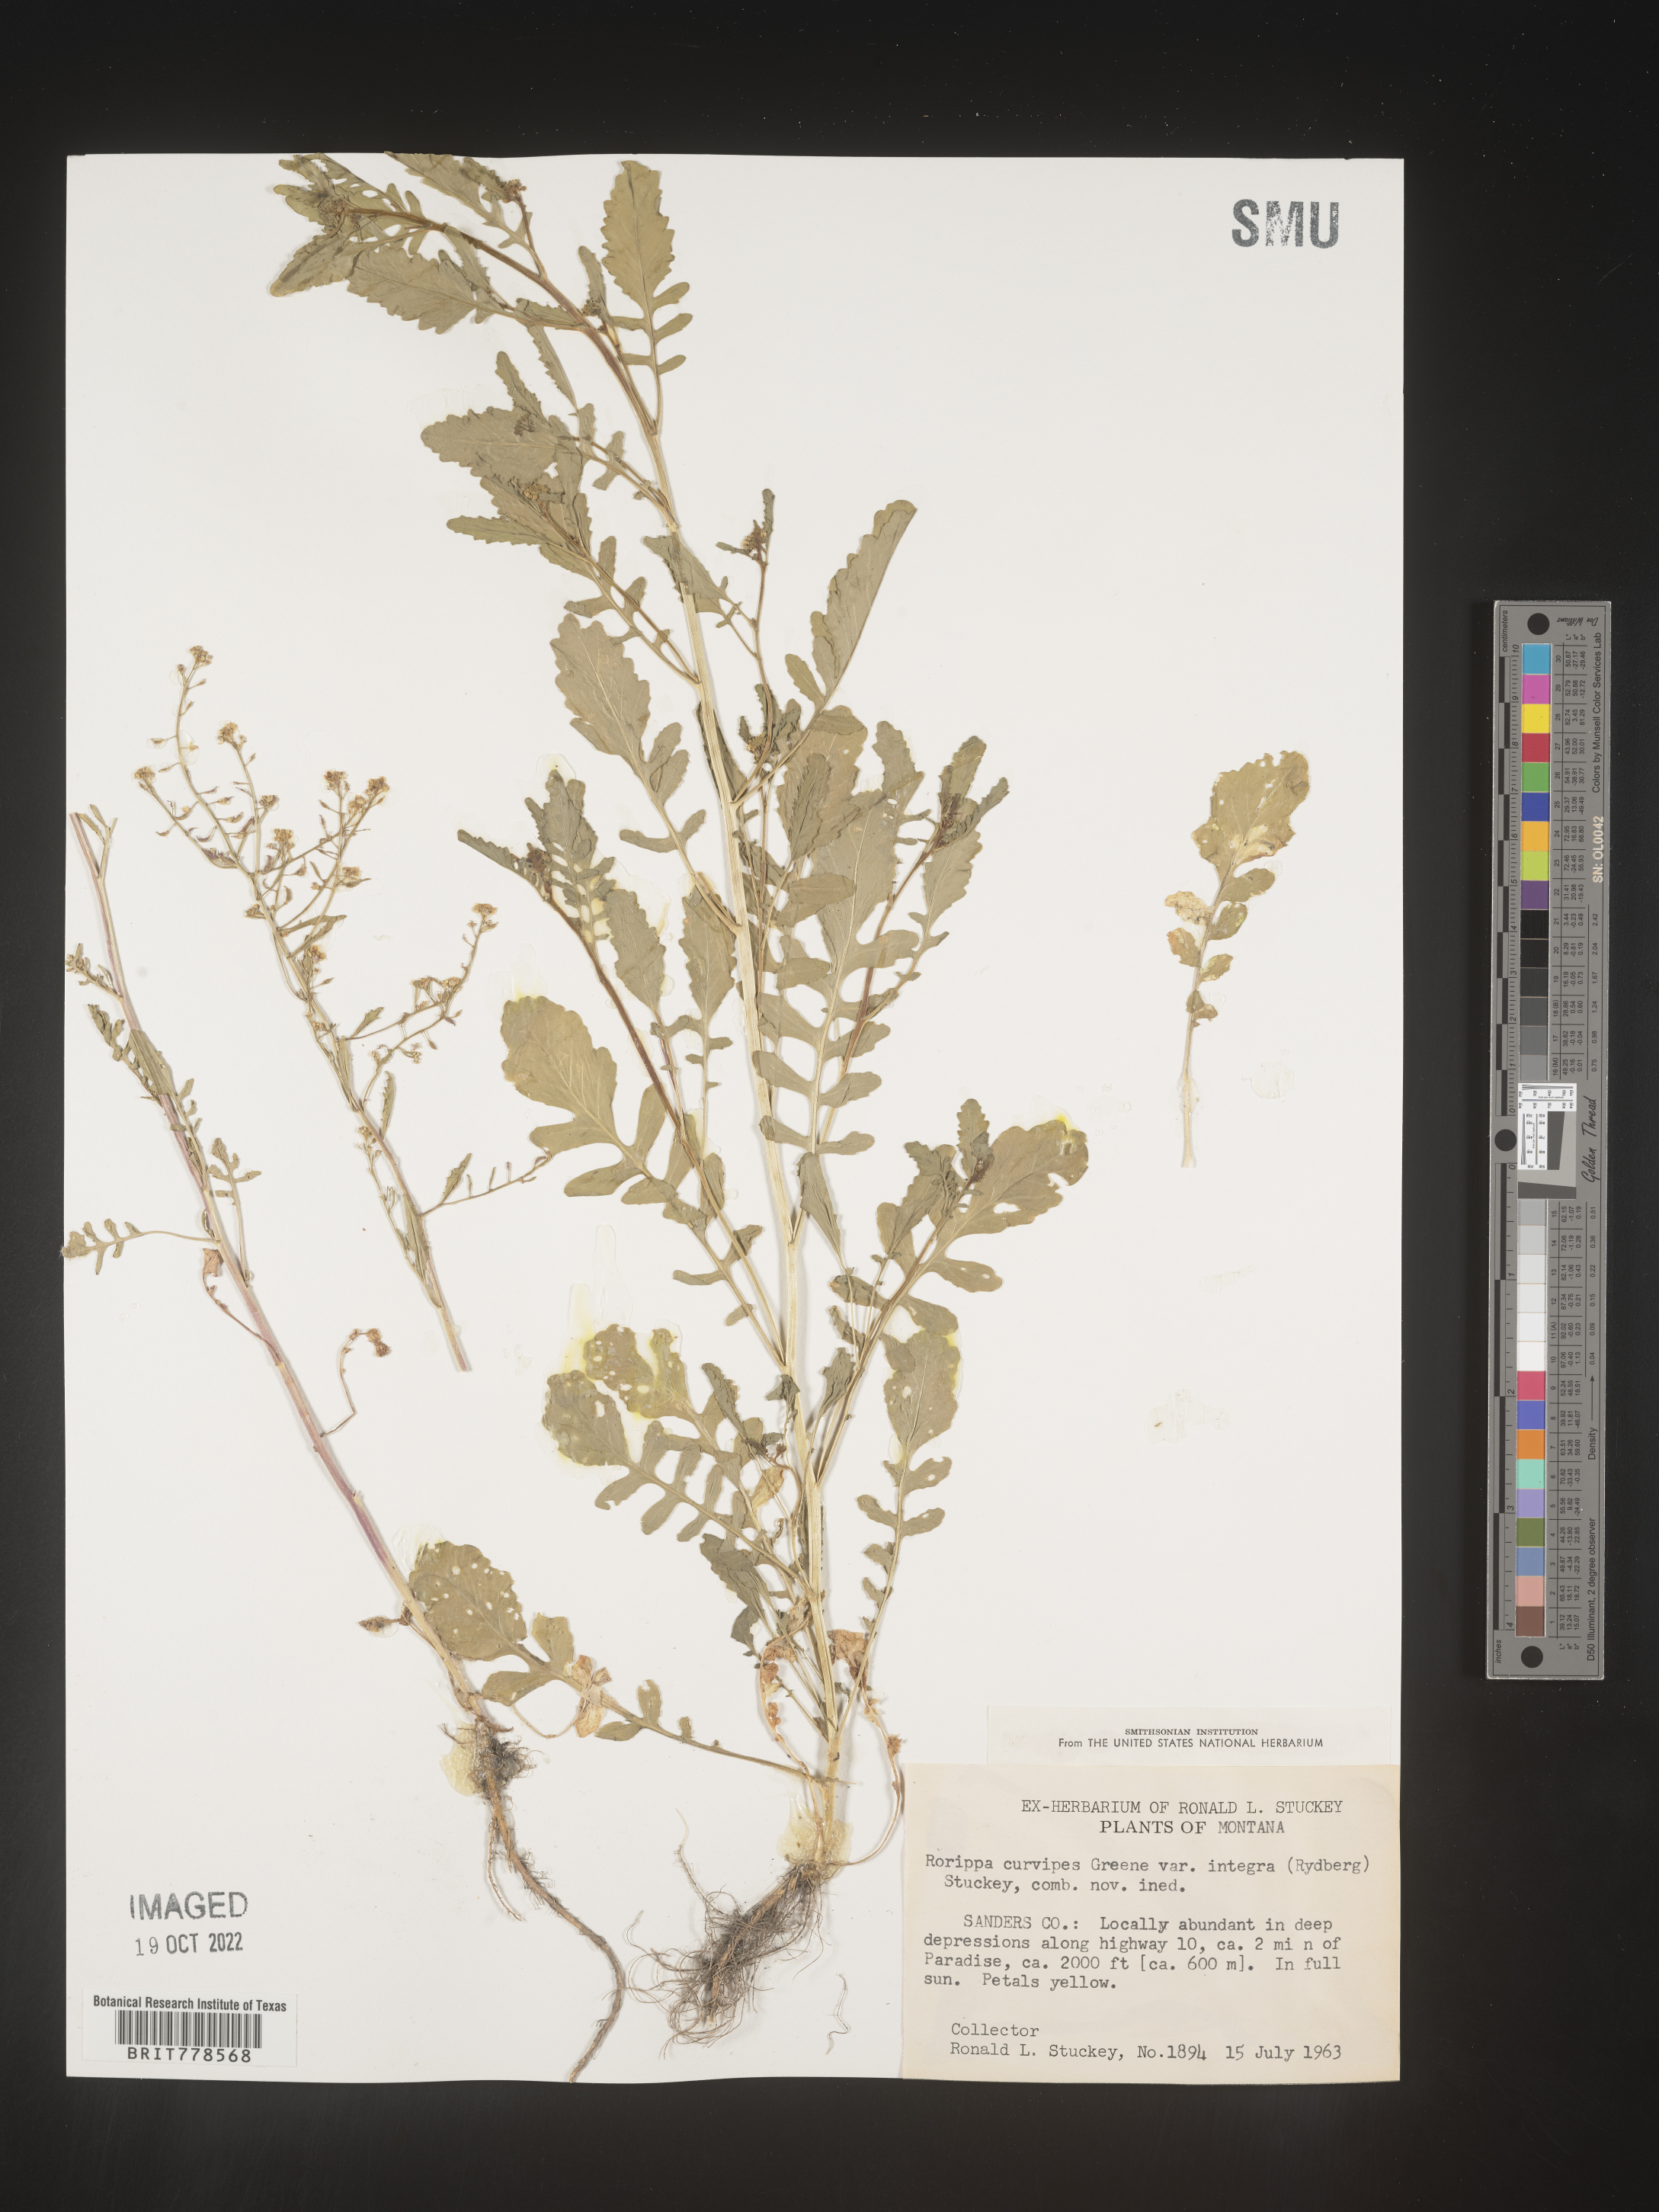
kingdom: Plantae
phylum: Tracheophyta
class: Magnoliopsida
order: Brassicales
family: Brassicaceae
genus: Rorippa
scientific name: Rorippa
